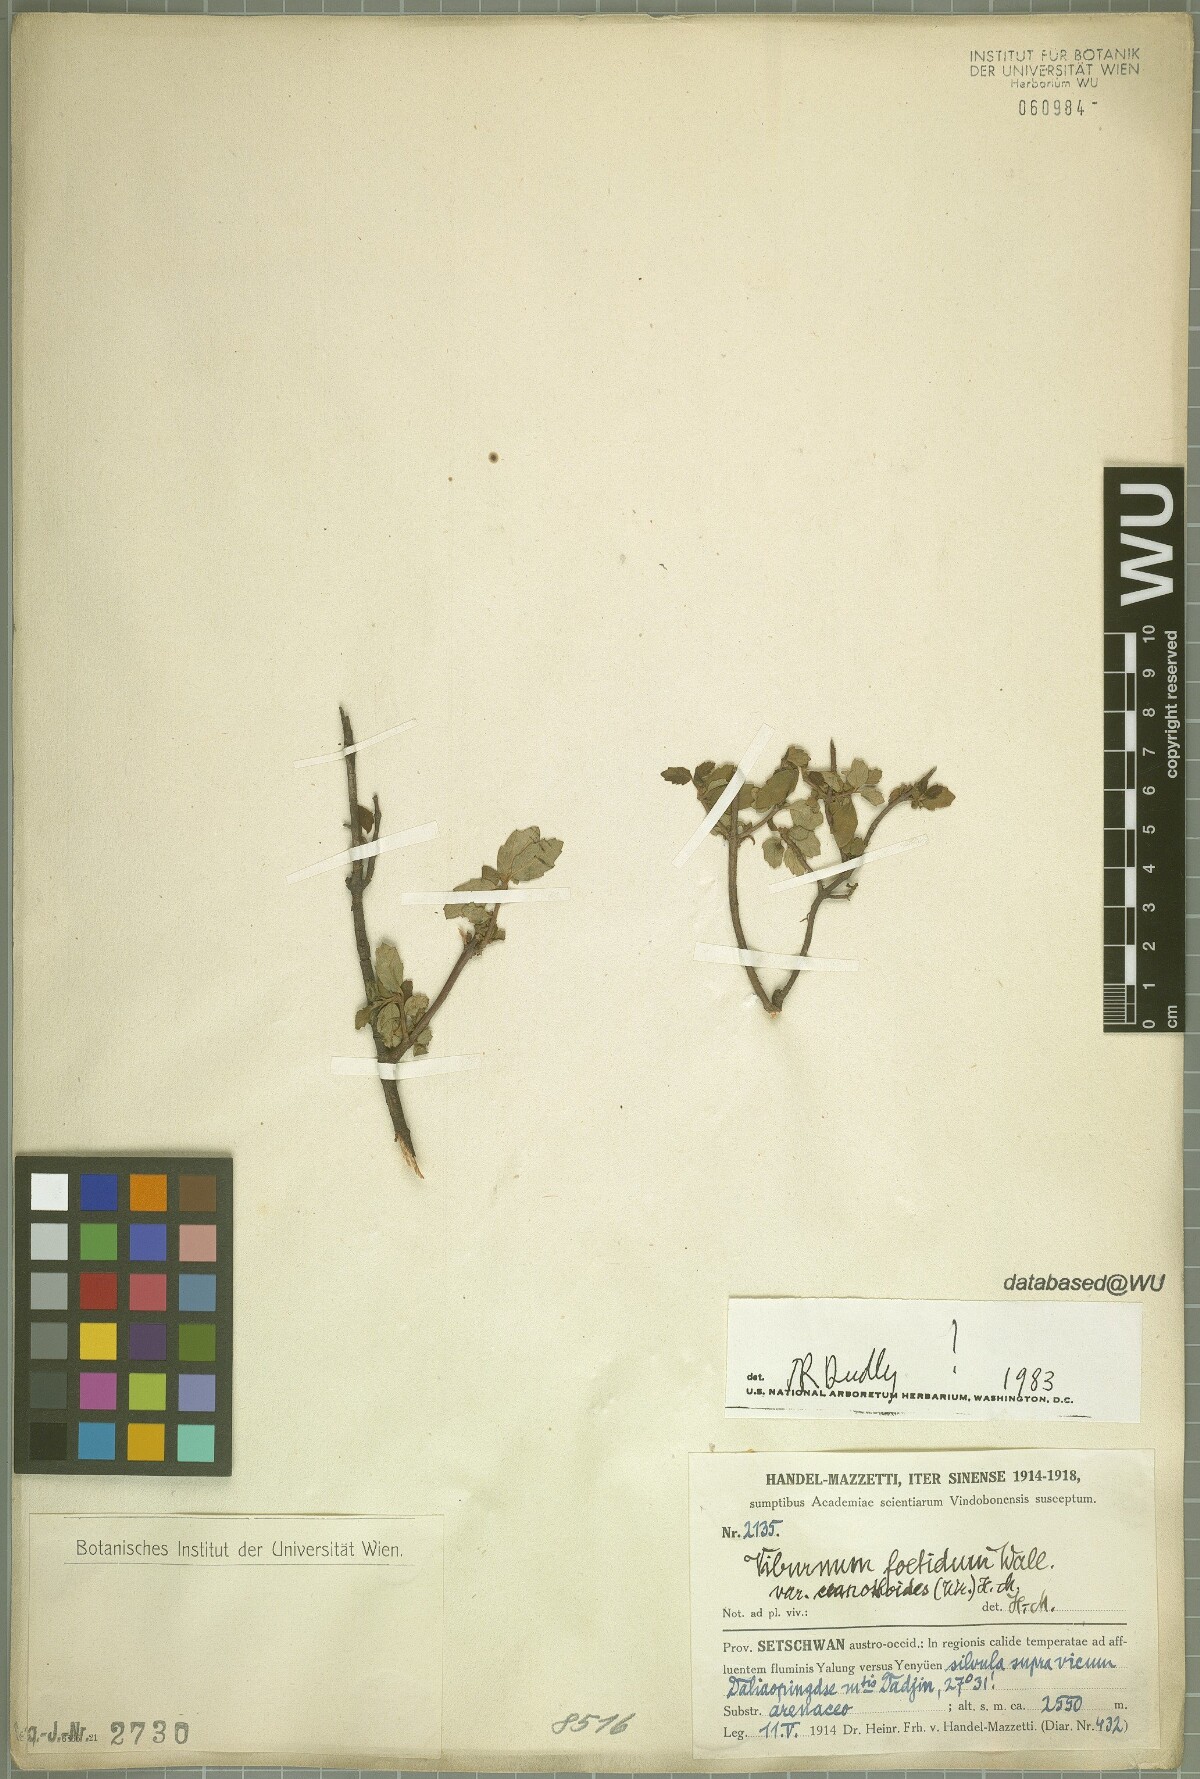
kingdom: Plantae
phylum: Tracheophyta
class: Magnoliopsida
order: Dipsacales
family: Viburnaceae
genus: Viburnum
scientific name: Viburnum foetidum
